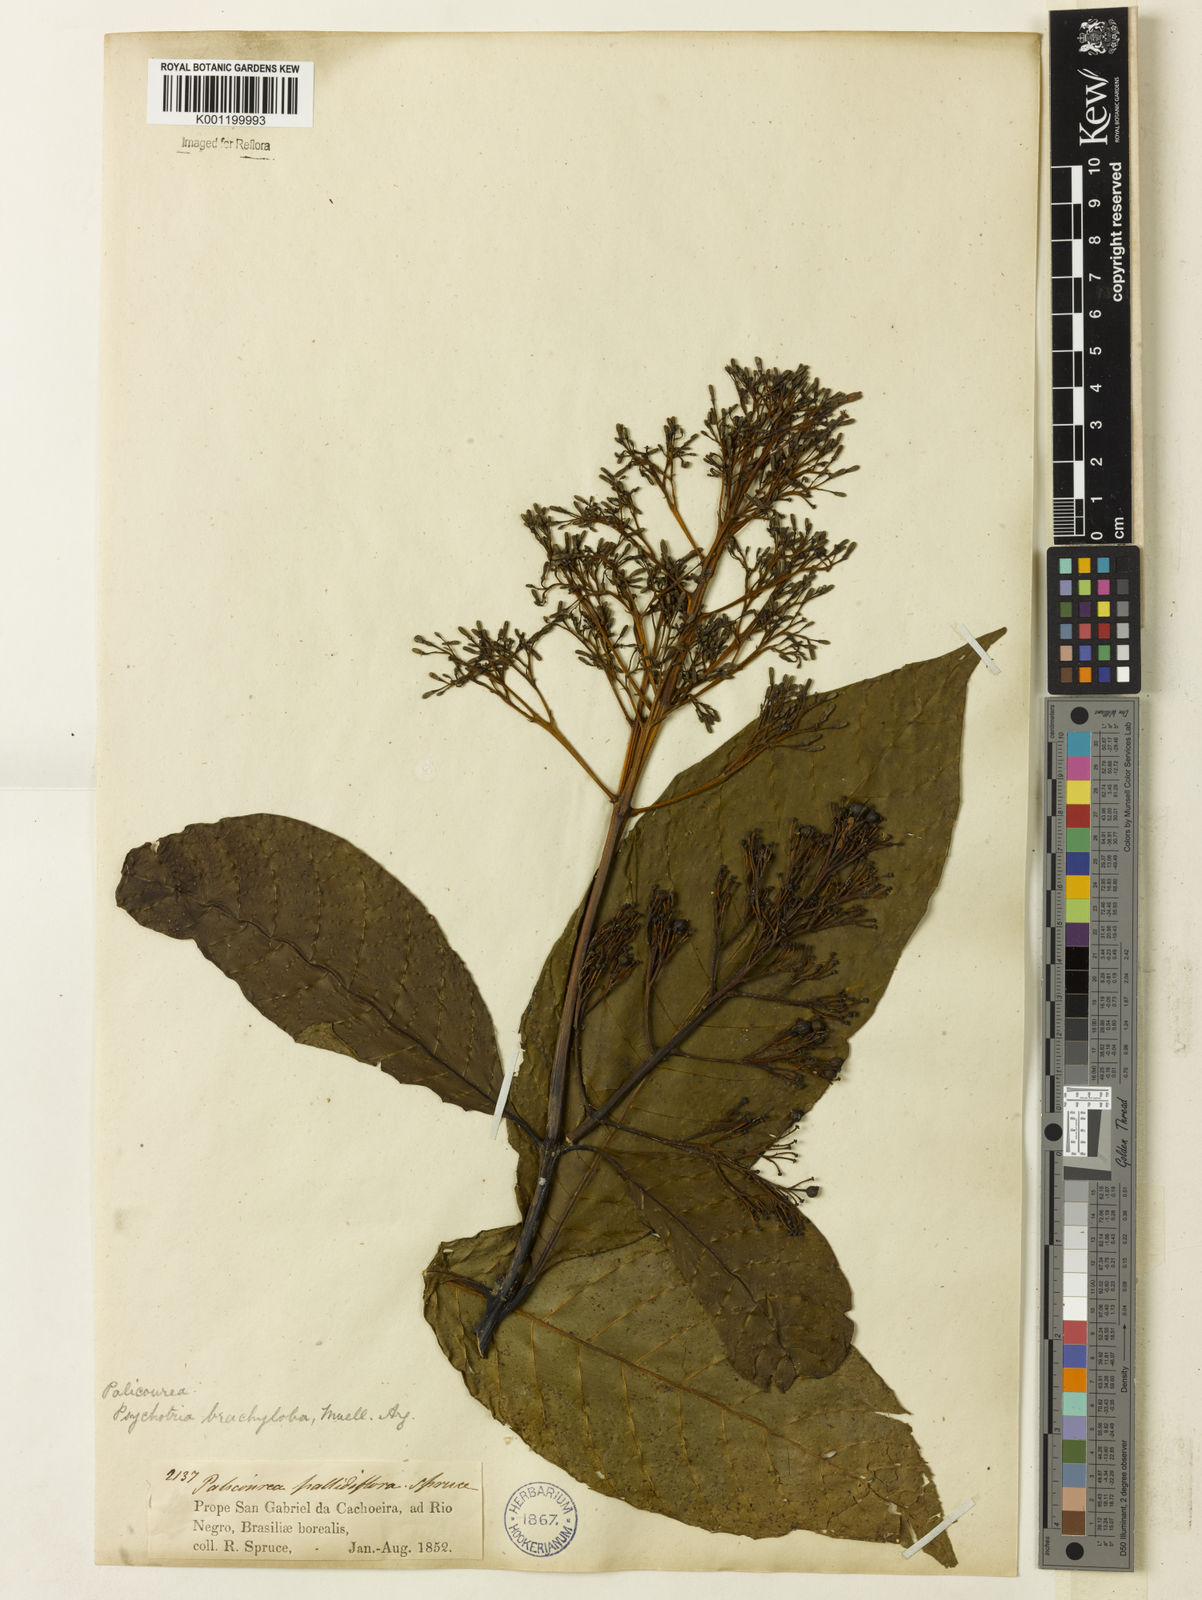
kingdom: Plantae
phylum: Tracheophyta
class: Magnoliopsida
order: Gentianales
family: Rubiaceae
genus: Palicourea
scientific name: Palicourea
